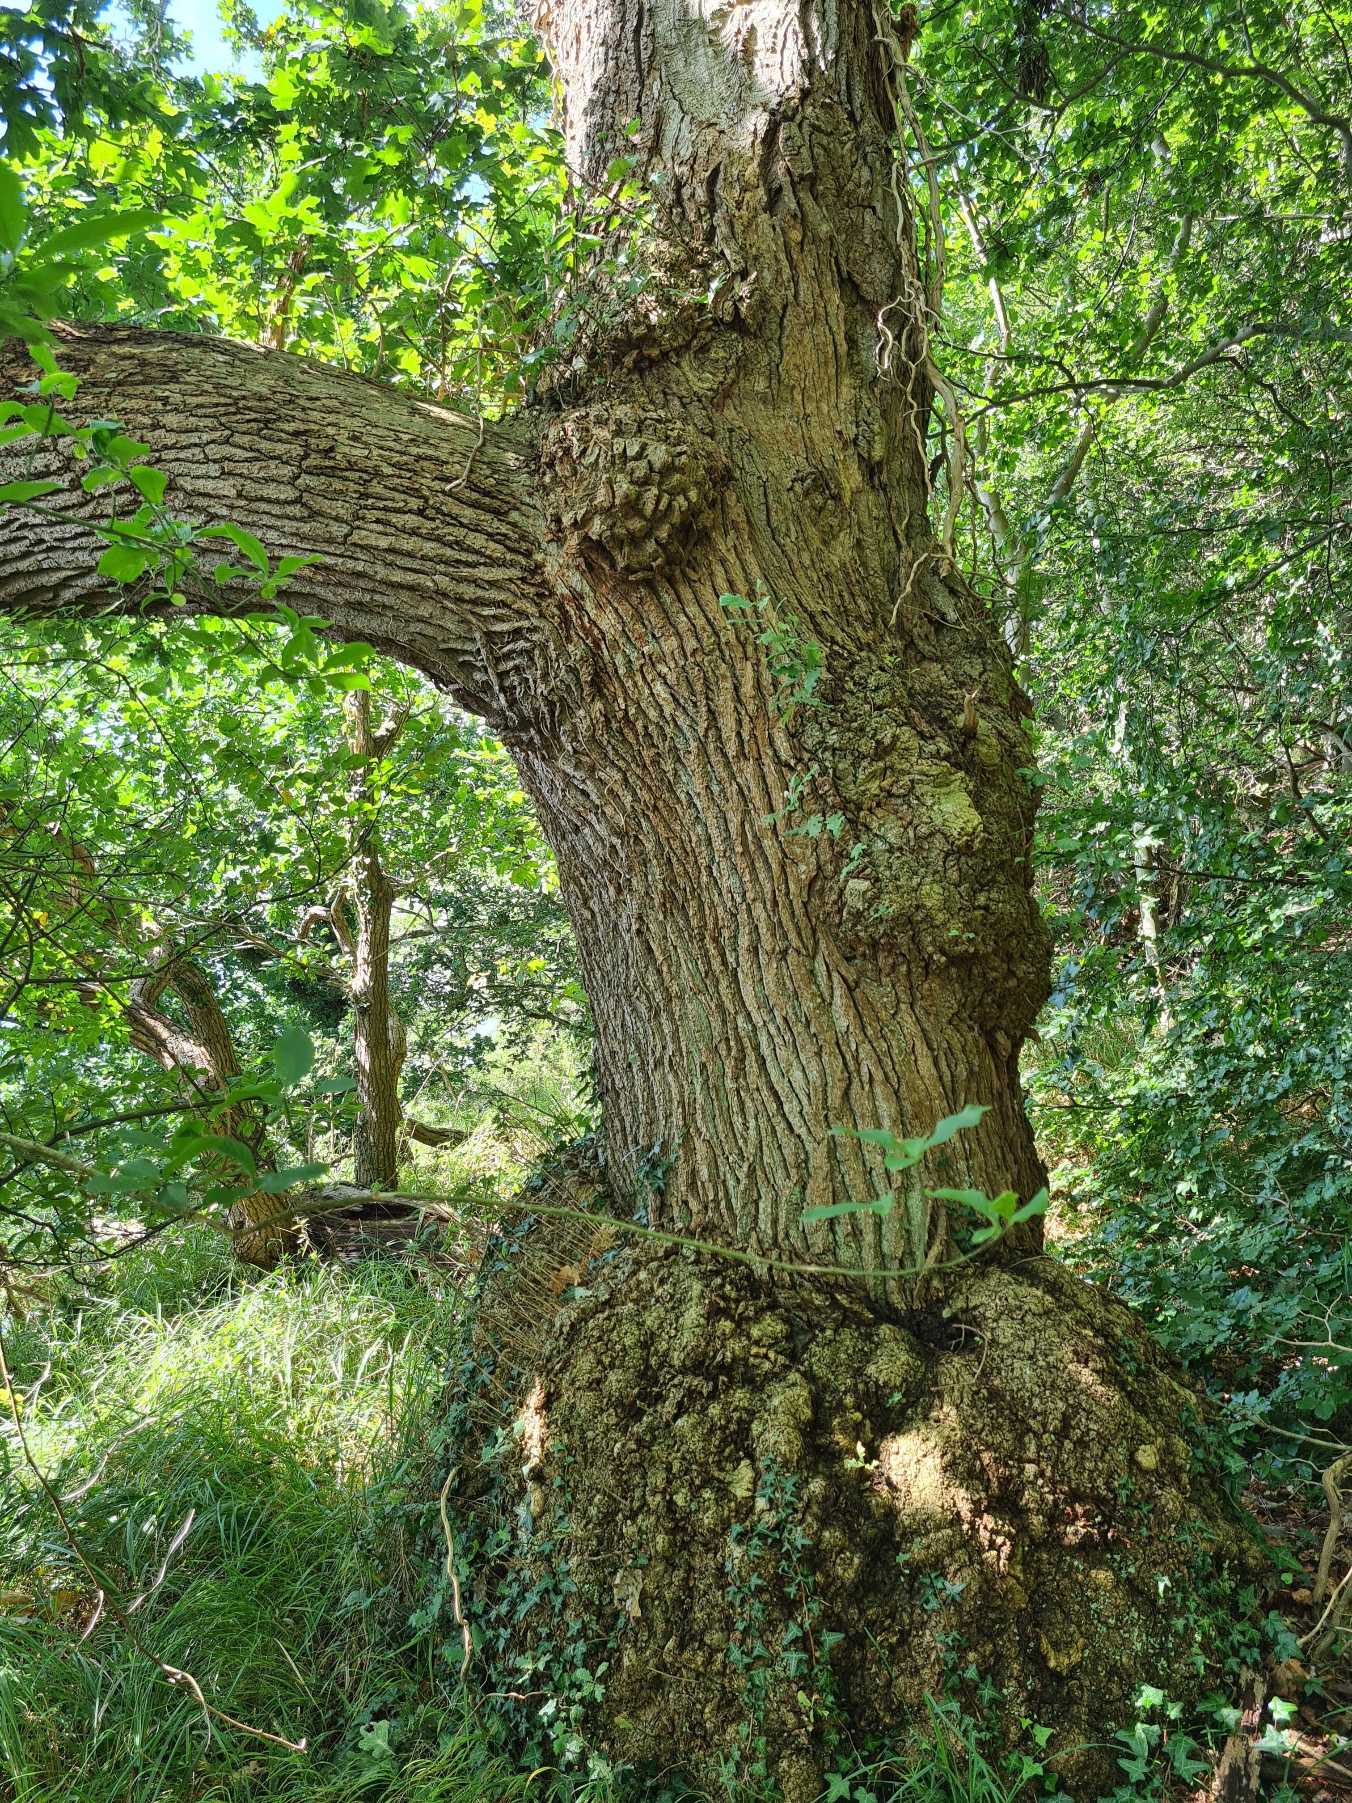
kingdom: Plantae
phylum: Tracheophyta
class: Magnoliopsida
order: Fagales
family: Fagaceae
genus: Quercus
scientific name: Quercus robur
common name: Stilk-eg/almindelig eg
